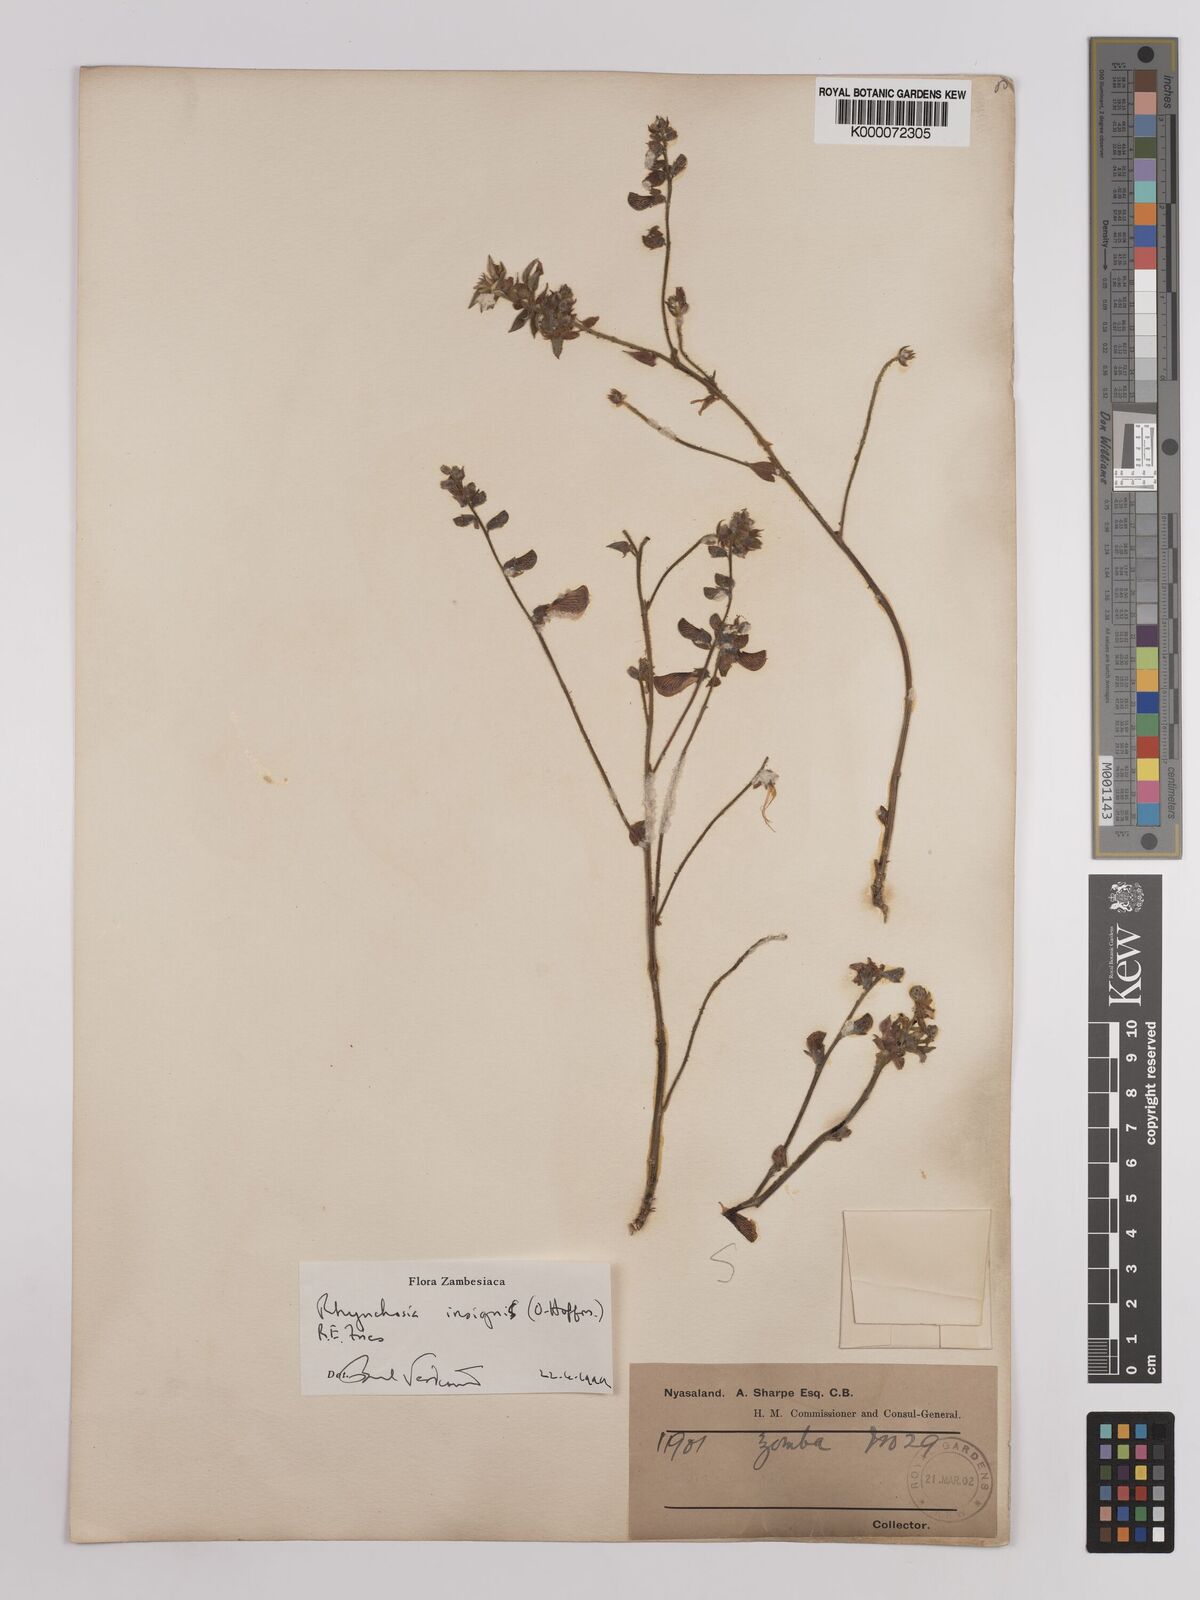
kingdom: Plantae
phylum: Tracheophyta
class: Magnoliopsida
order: Fabales
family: Fabaceae
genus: Rhynchosia
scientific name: Rhynchosia insignis
